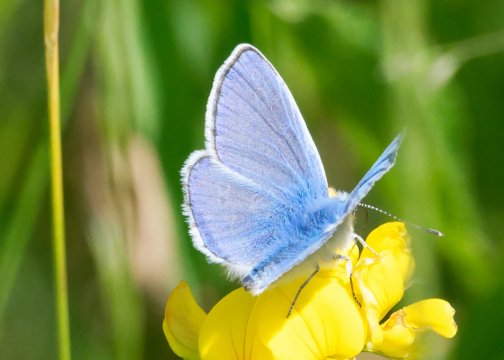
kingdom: Animalia
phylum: Arthropoda
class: Insecta
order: Lepidoptera
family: Lycaenidae
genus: Polyommatus
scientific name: Polyommatus icarus
